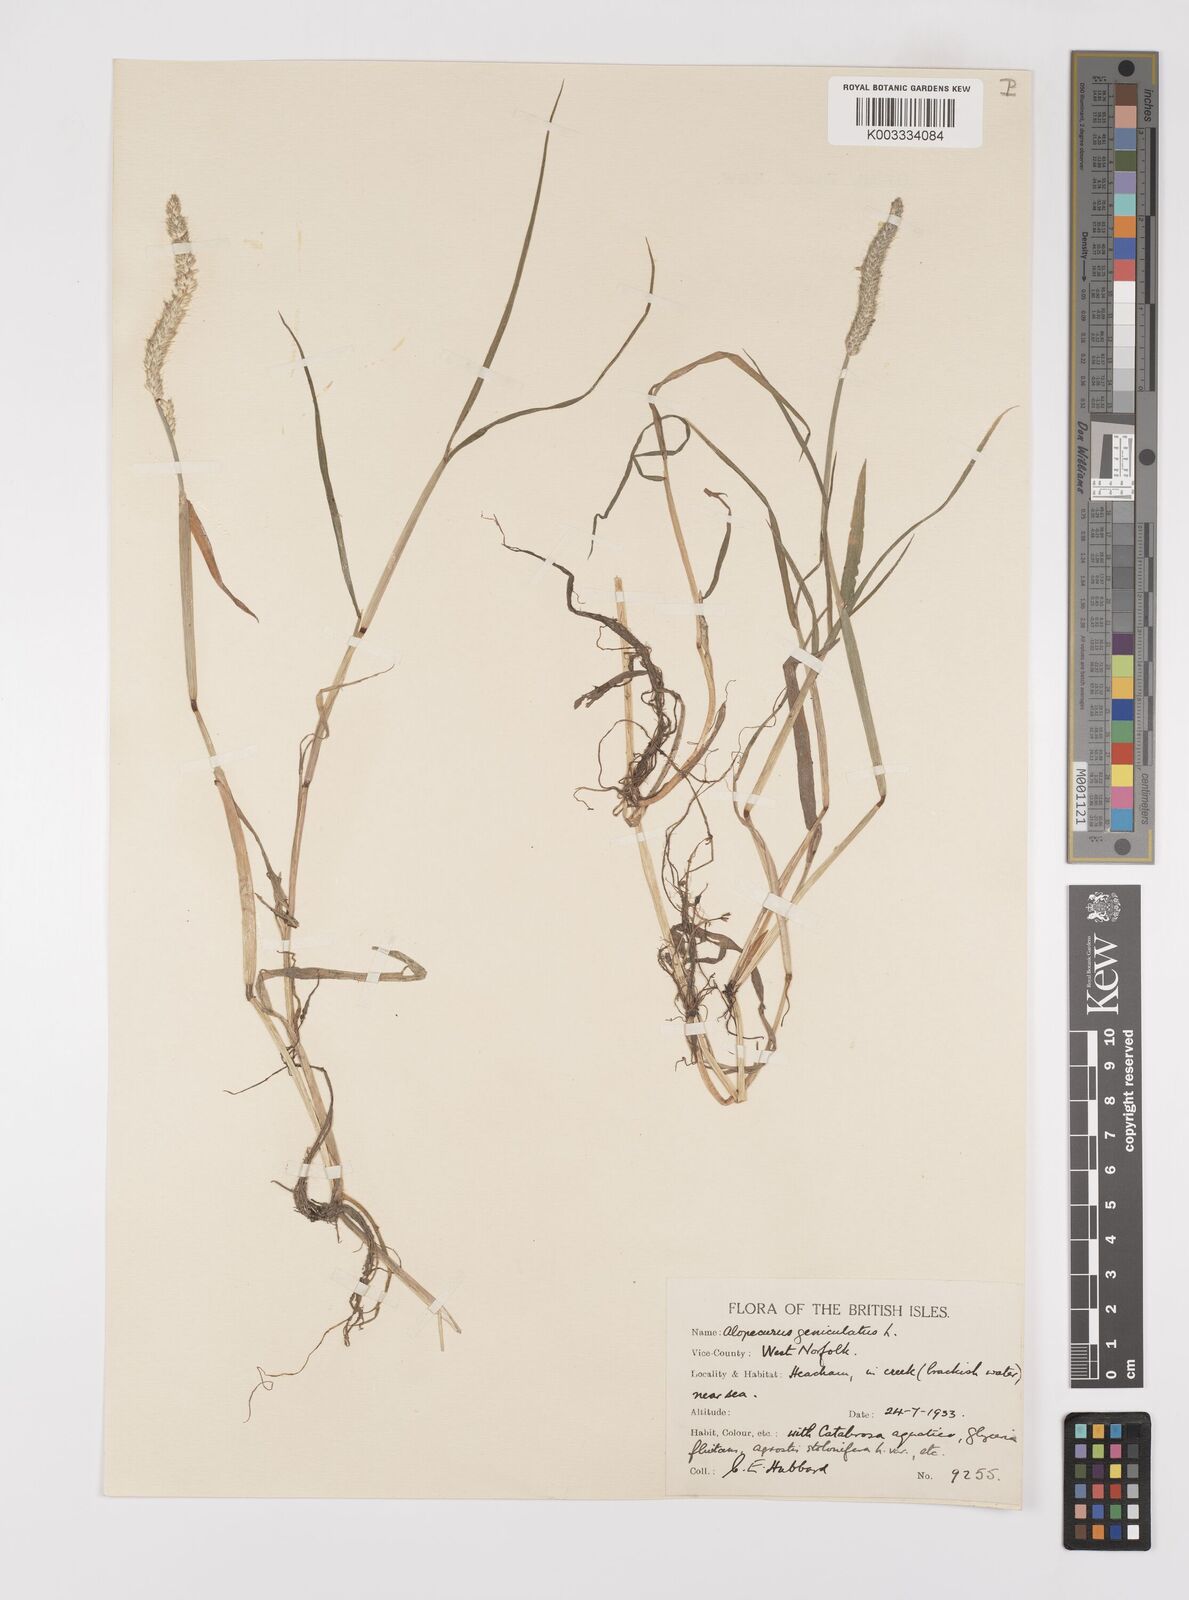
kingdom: Plantae
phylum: Tracheophyta
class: Liliopsida
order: Poales
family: Poaceae
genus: Alopecurus
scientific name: Alopecurus geniculatus
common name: Water foxtail
